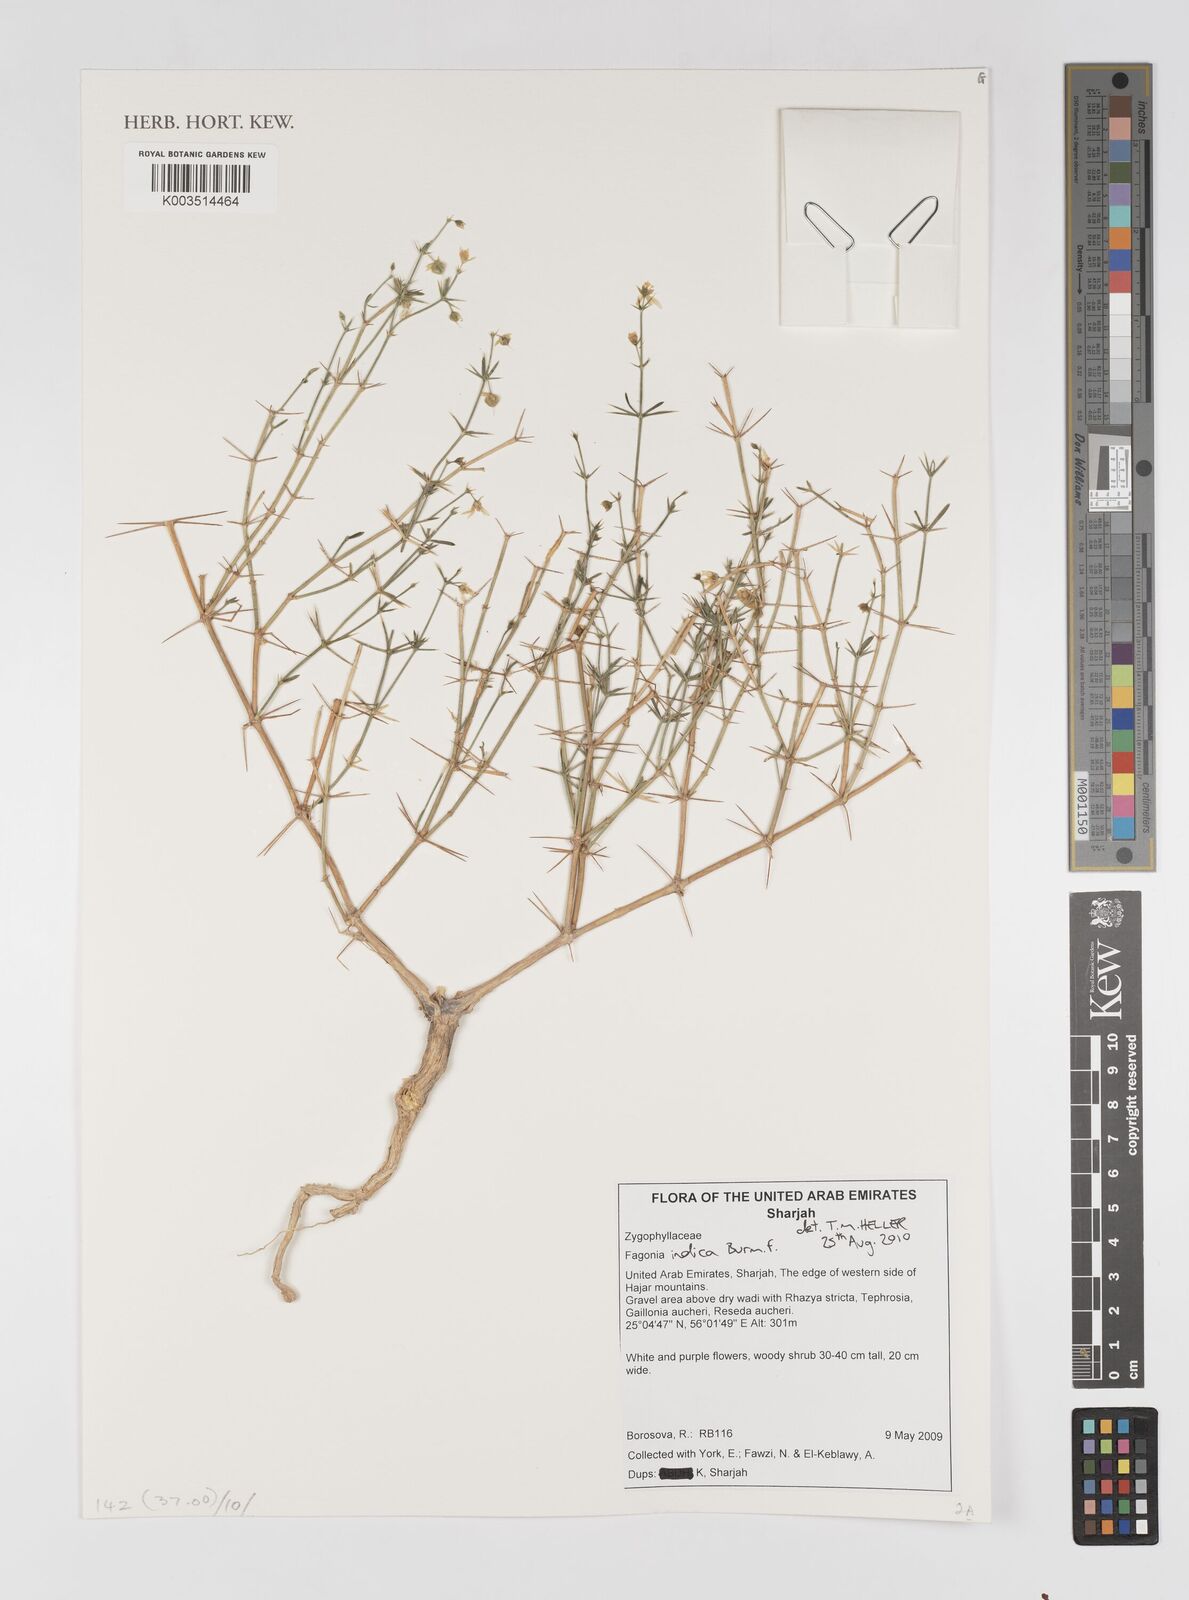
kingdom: Plantae
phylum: Tracheophyta
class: Magnoliopsida
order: Zygophyllales
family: Zygophyllaceae
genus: Fagonia
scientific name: Fagonia indica
